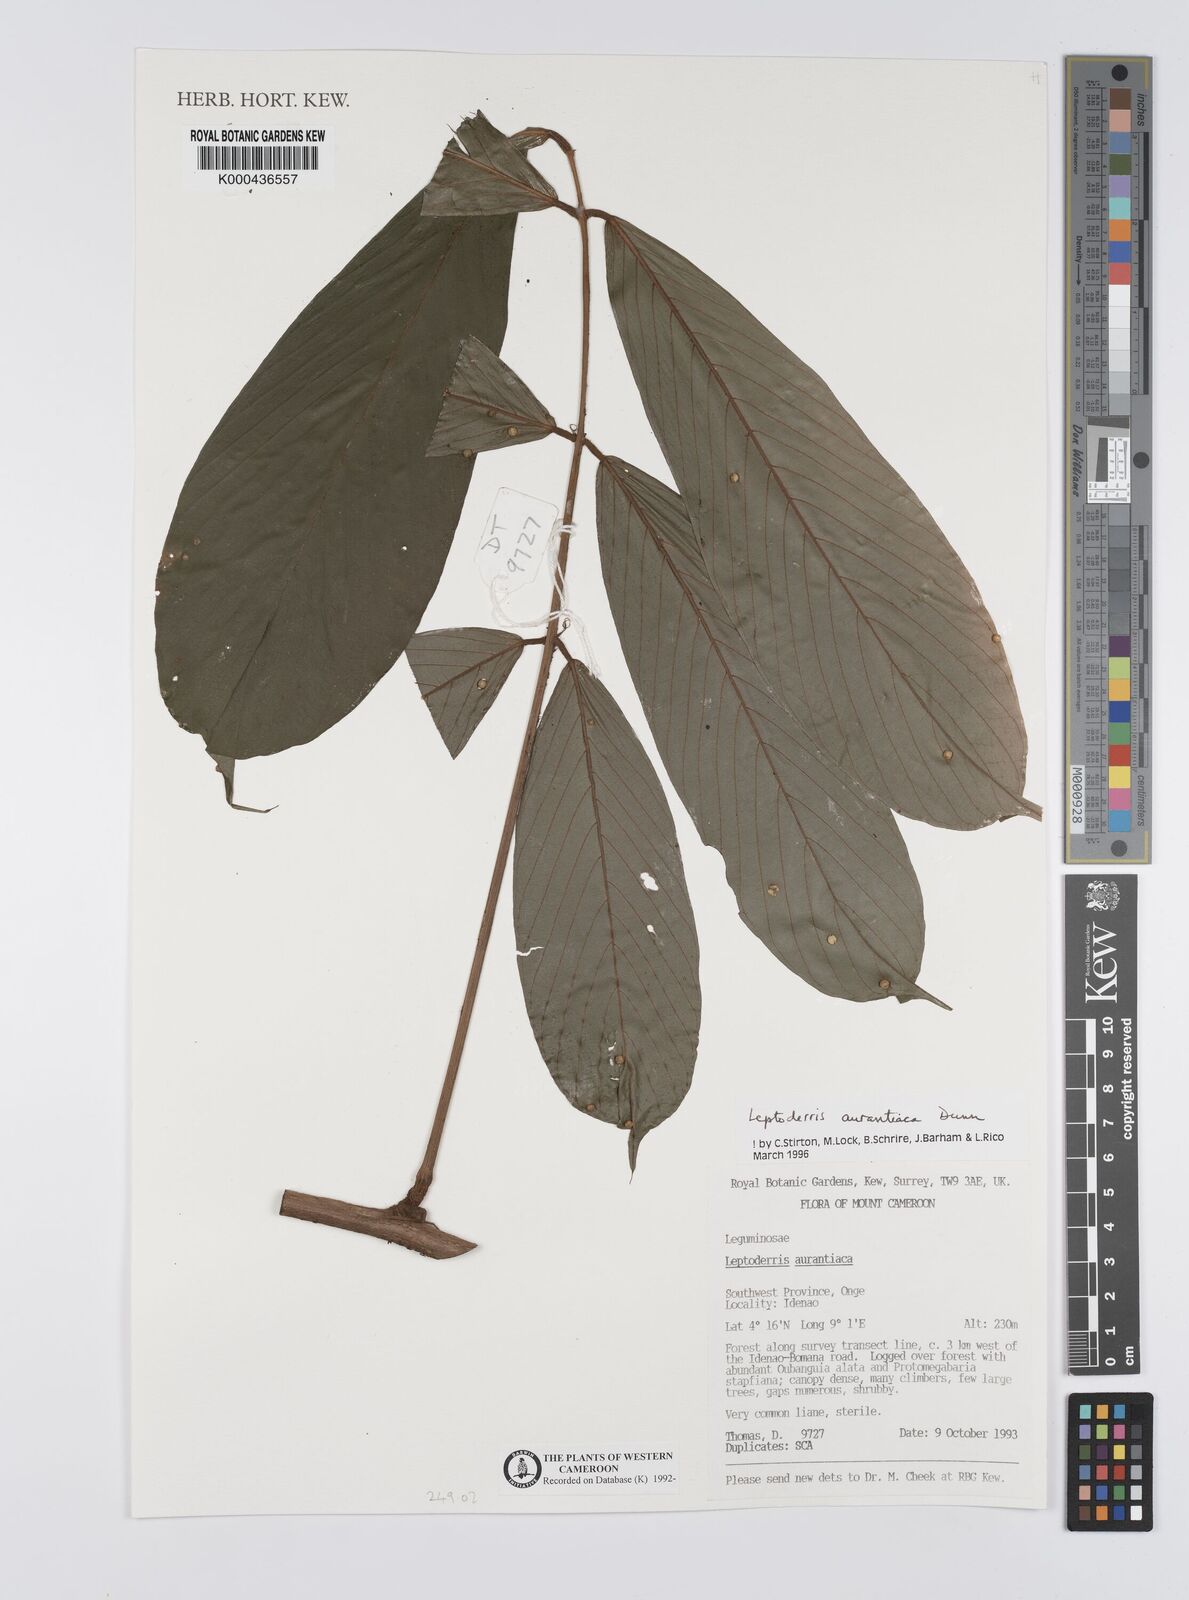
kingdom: Plantae
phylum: Tracheophyta
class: Magnoliopsida
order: Fabales
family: Fabaceae
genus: Leptoderris
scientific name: Leptoderris aurantiaca
